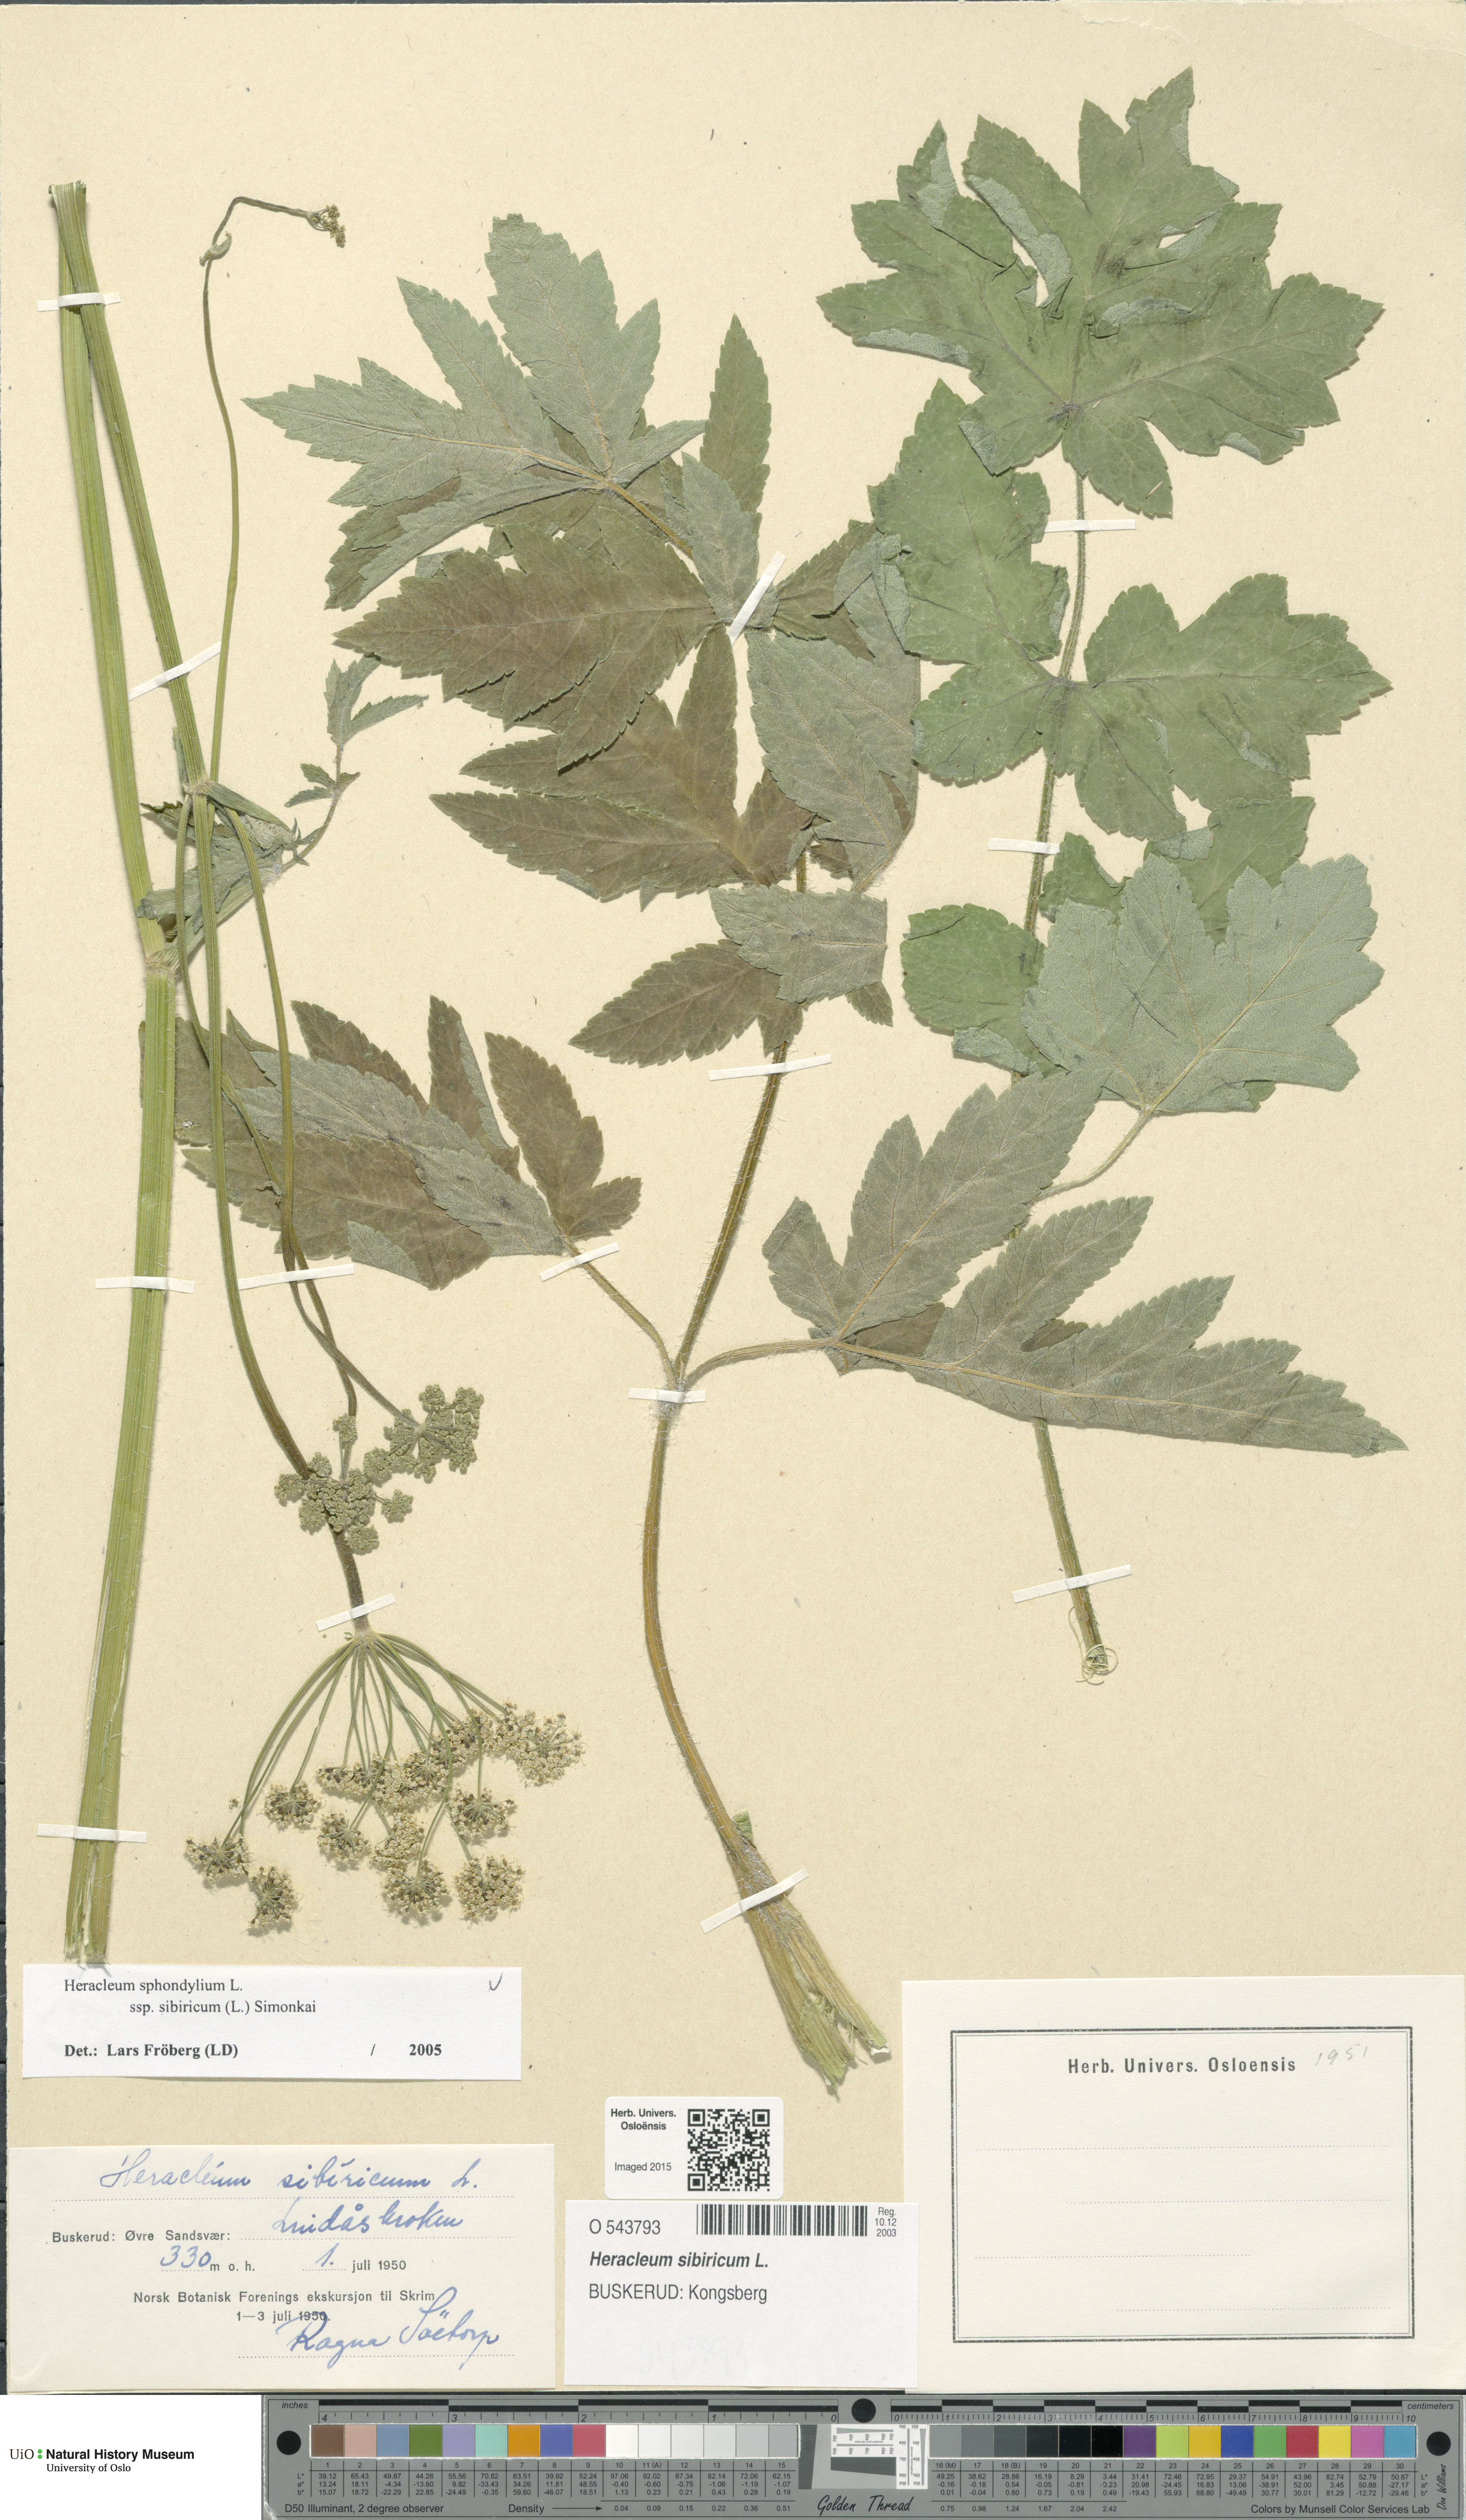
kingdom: Plantae
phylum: Tracheophyta
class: Magnoliopsida
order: Apiales
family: Apiaceae
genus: Heracleum
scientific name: Heracleum sphondylium
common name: Hogweed
